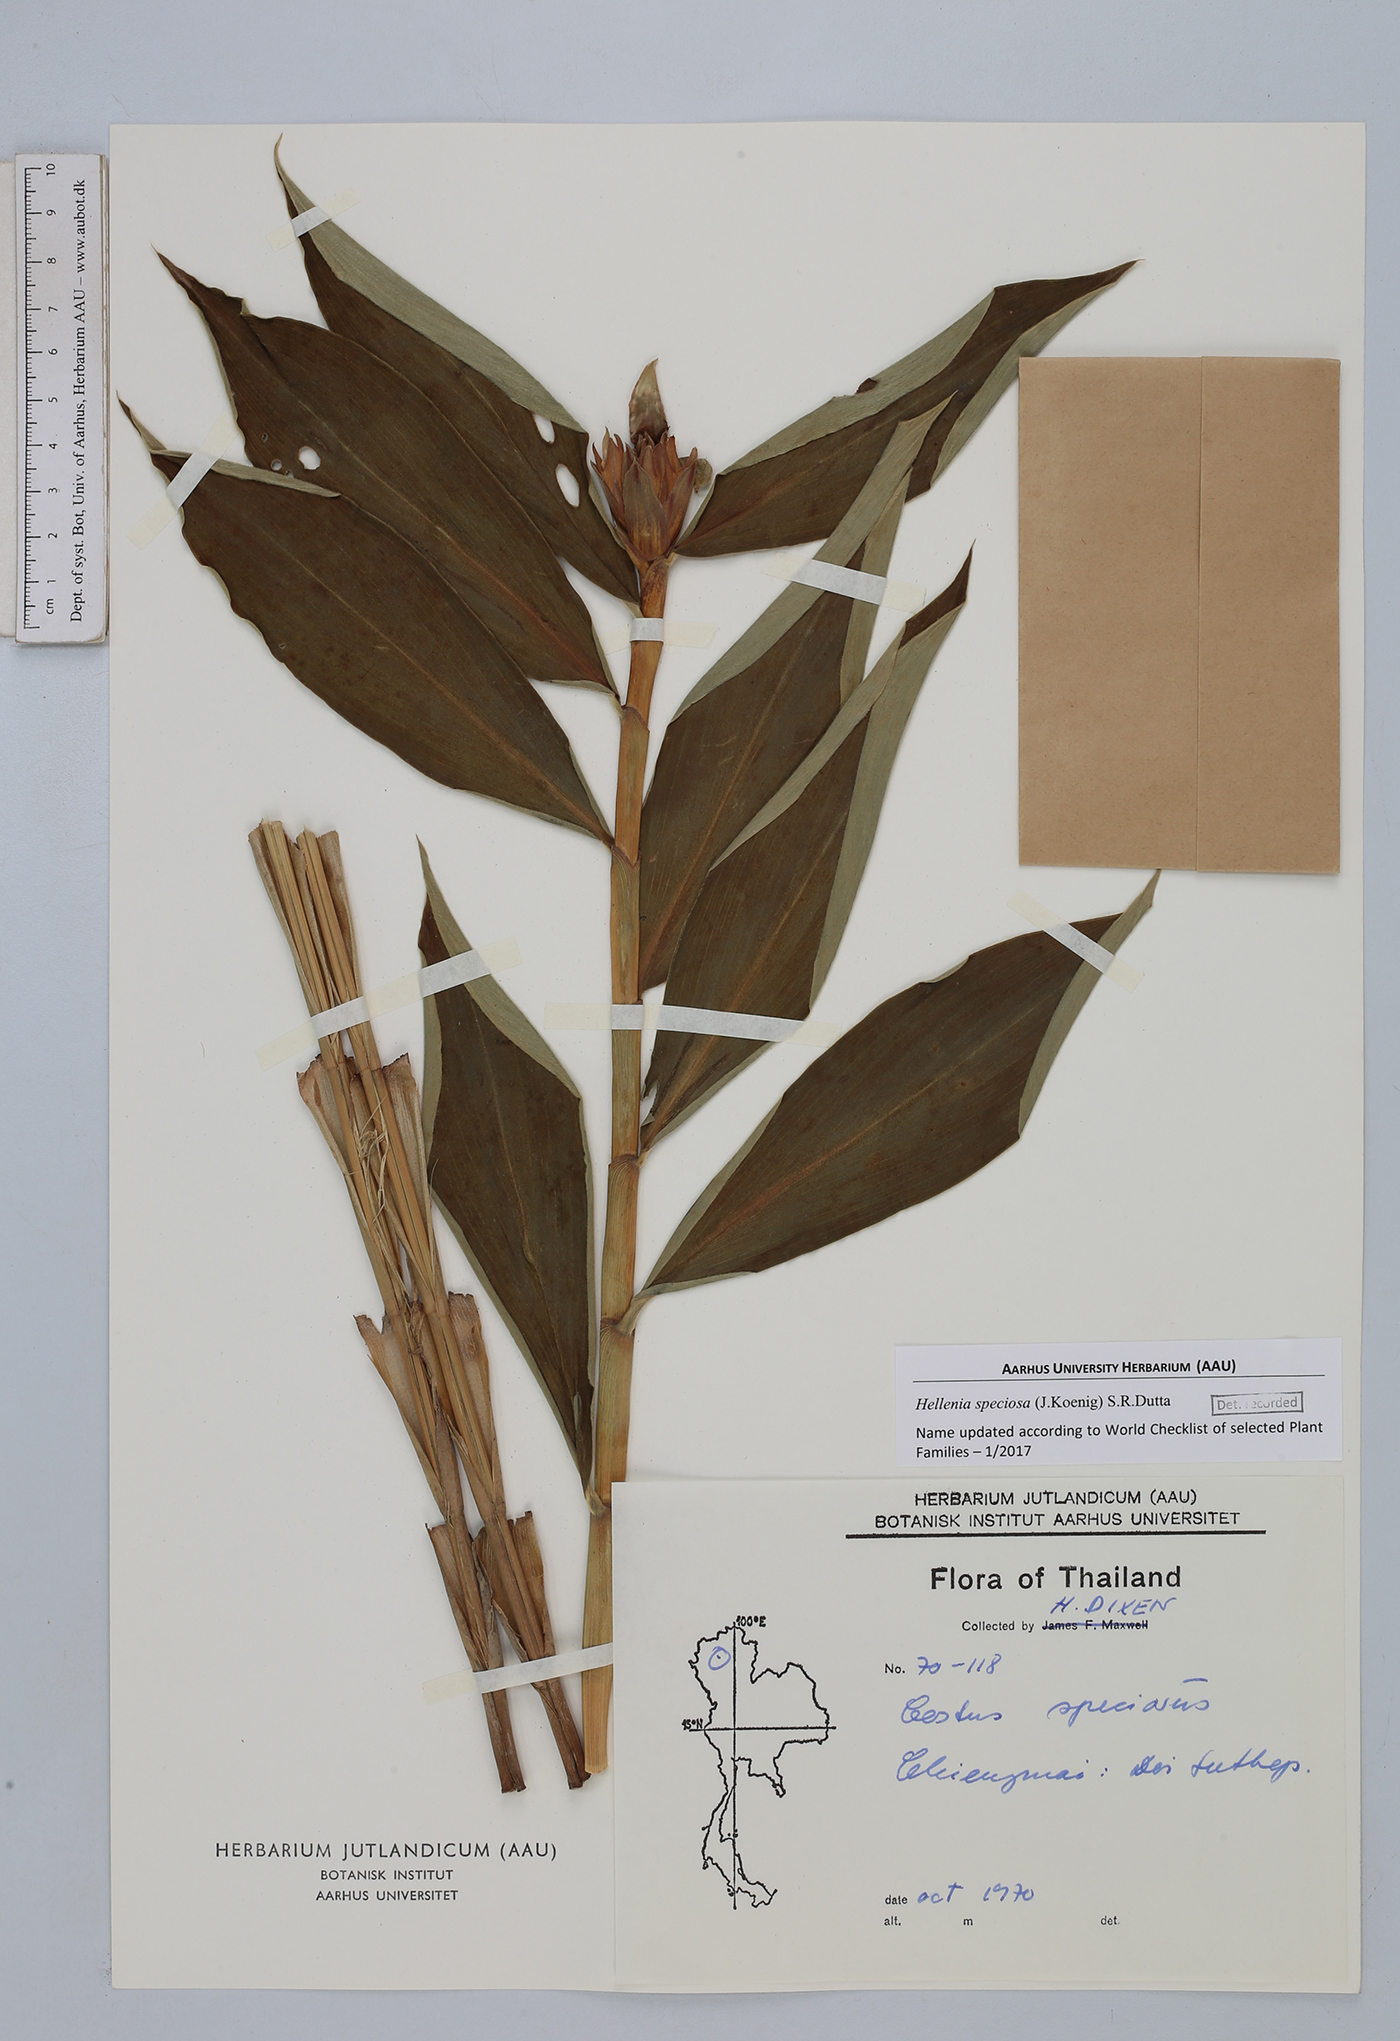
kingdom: Plantae
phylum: Tracheophyta
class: Liliopsida
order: Zingiberales
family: Costaceae
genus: Hellenia
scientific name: Hellenia speciosa
